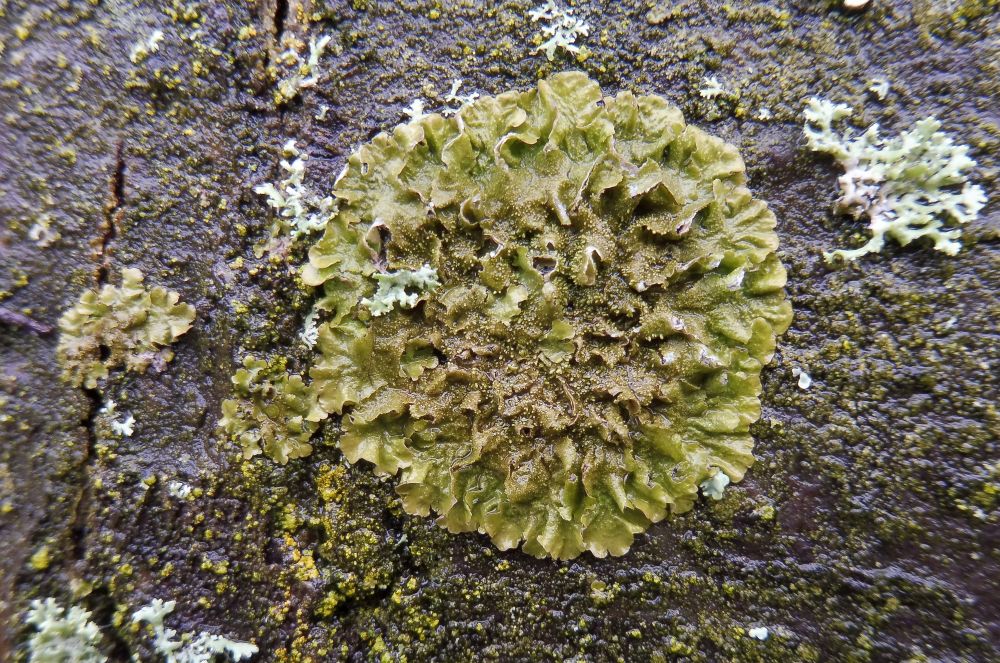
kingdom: Fungi
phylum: Ascomycota
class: Lecanoromycetes
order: Lecanorales
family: Parmeliaceae
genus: Melanelixia
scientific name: Melanelixia glabratula
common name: glinsende skållav
